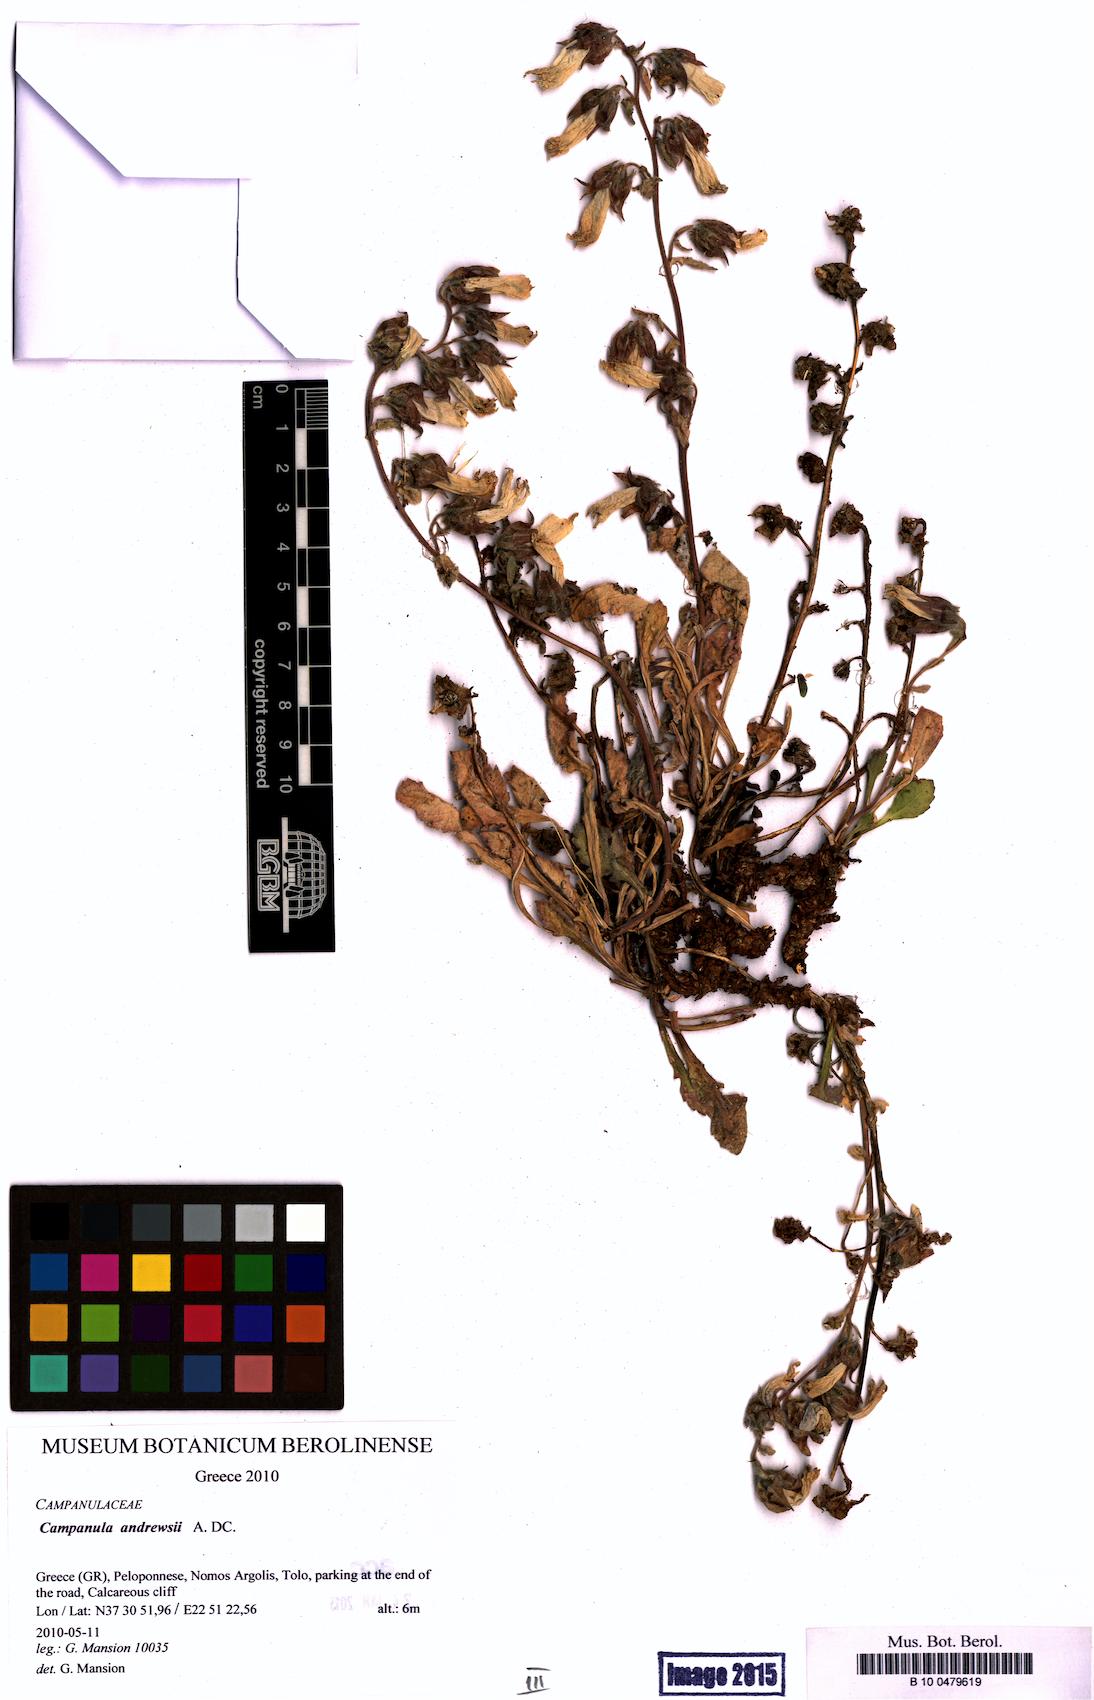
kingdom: Plantae
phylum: Tracheophyta
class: Magnoliopsida
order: Asterales
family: Campanulaceae
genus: Campanula
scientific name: Campanula andrewsii
